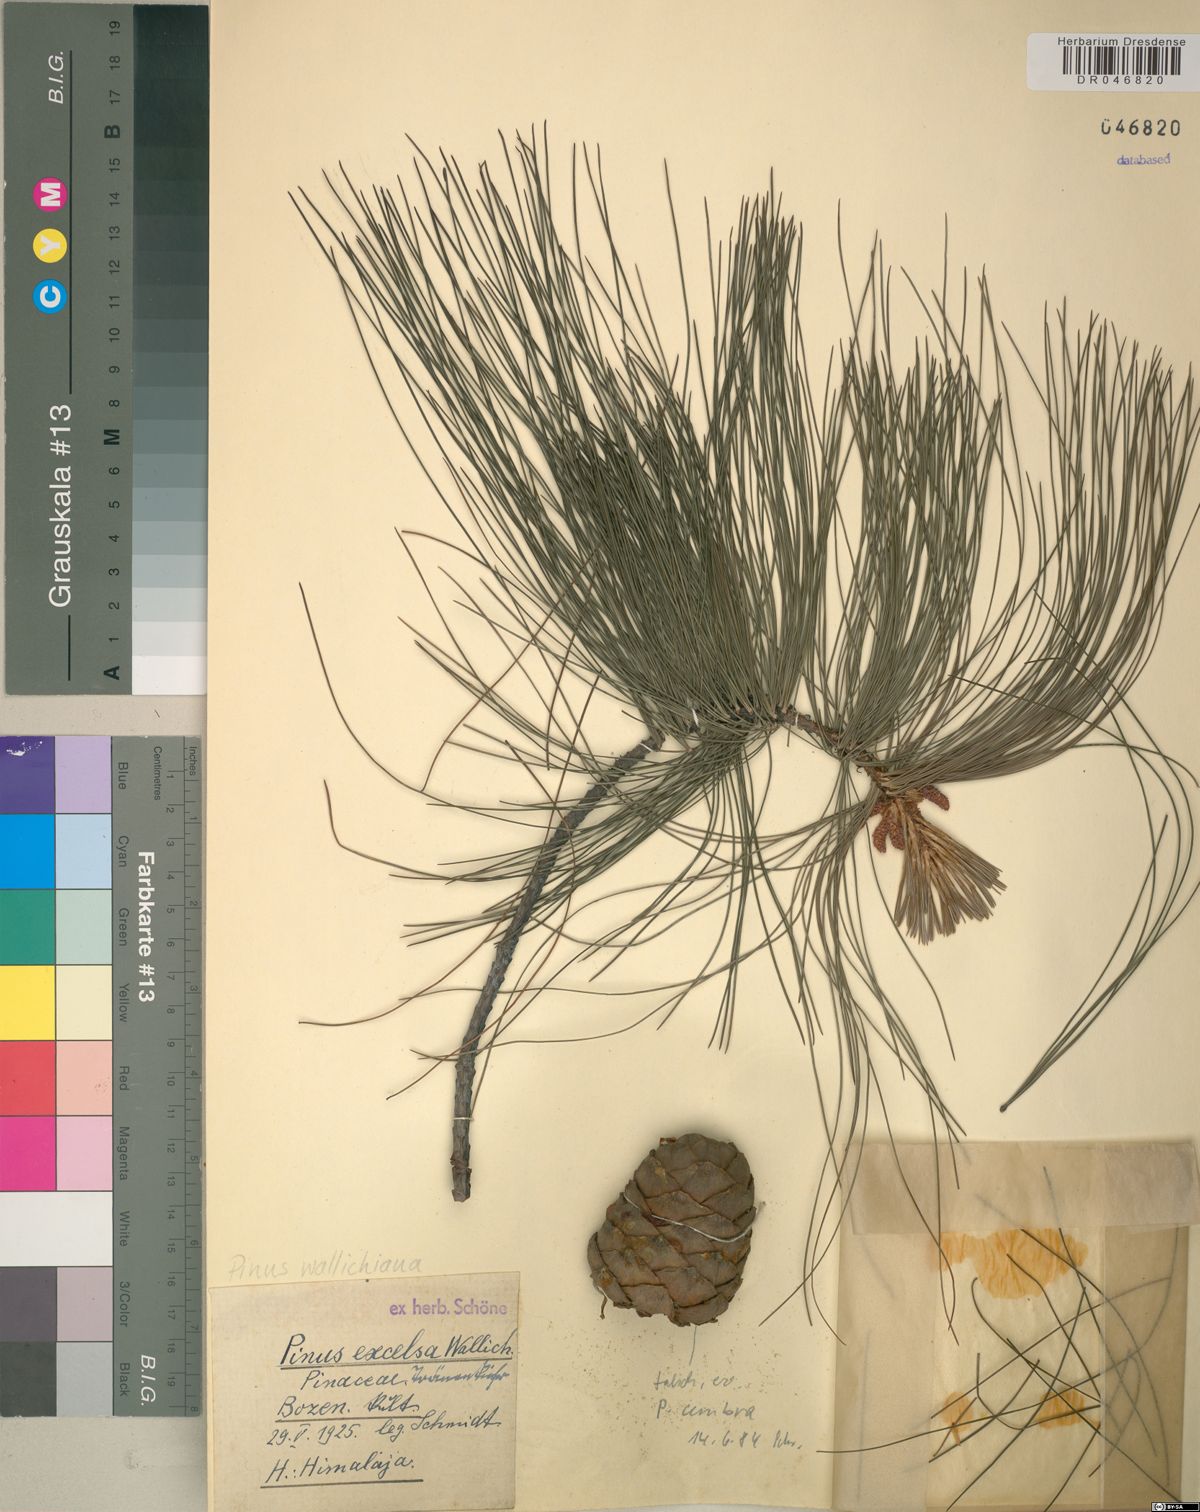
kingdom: Plantae
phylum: Tracheophyta
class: Pinopsida
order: Pinales
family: Pinaceae
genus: Pinus
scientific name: Pinus wallichiana
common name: Bhutan pine
